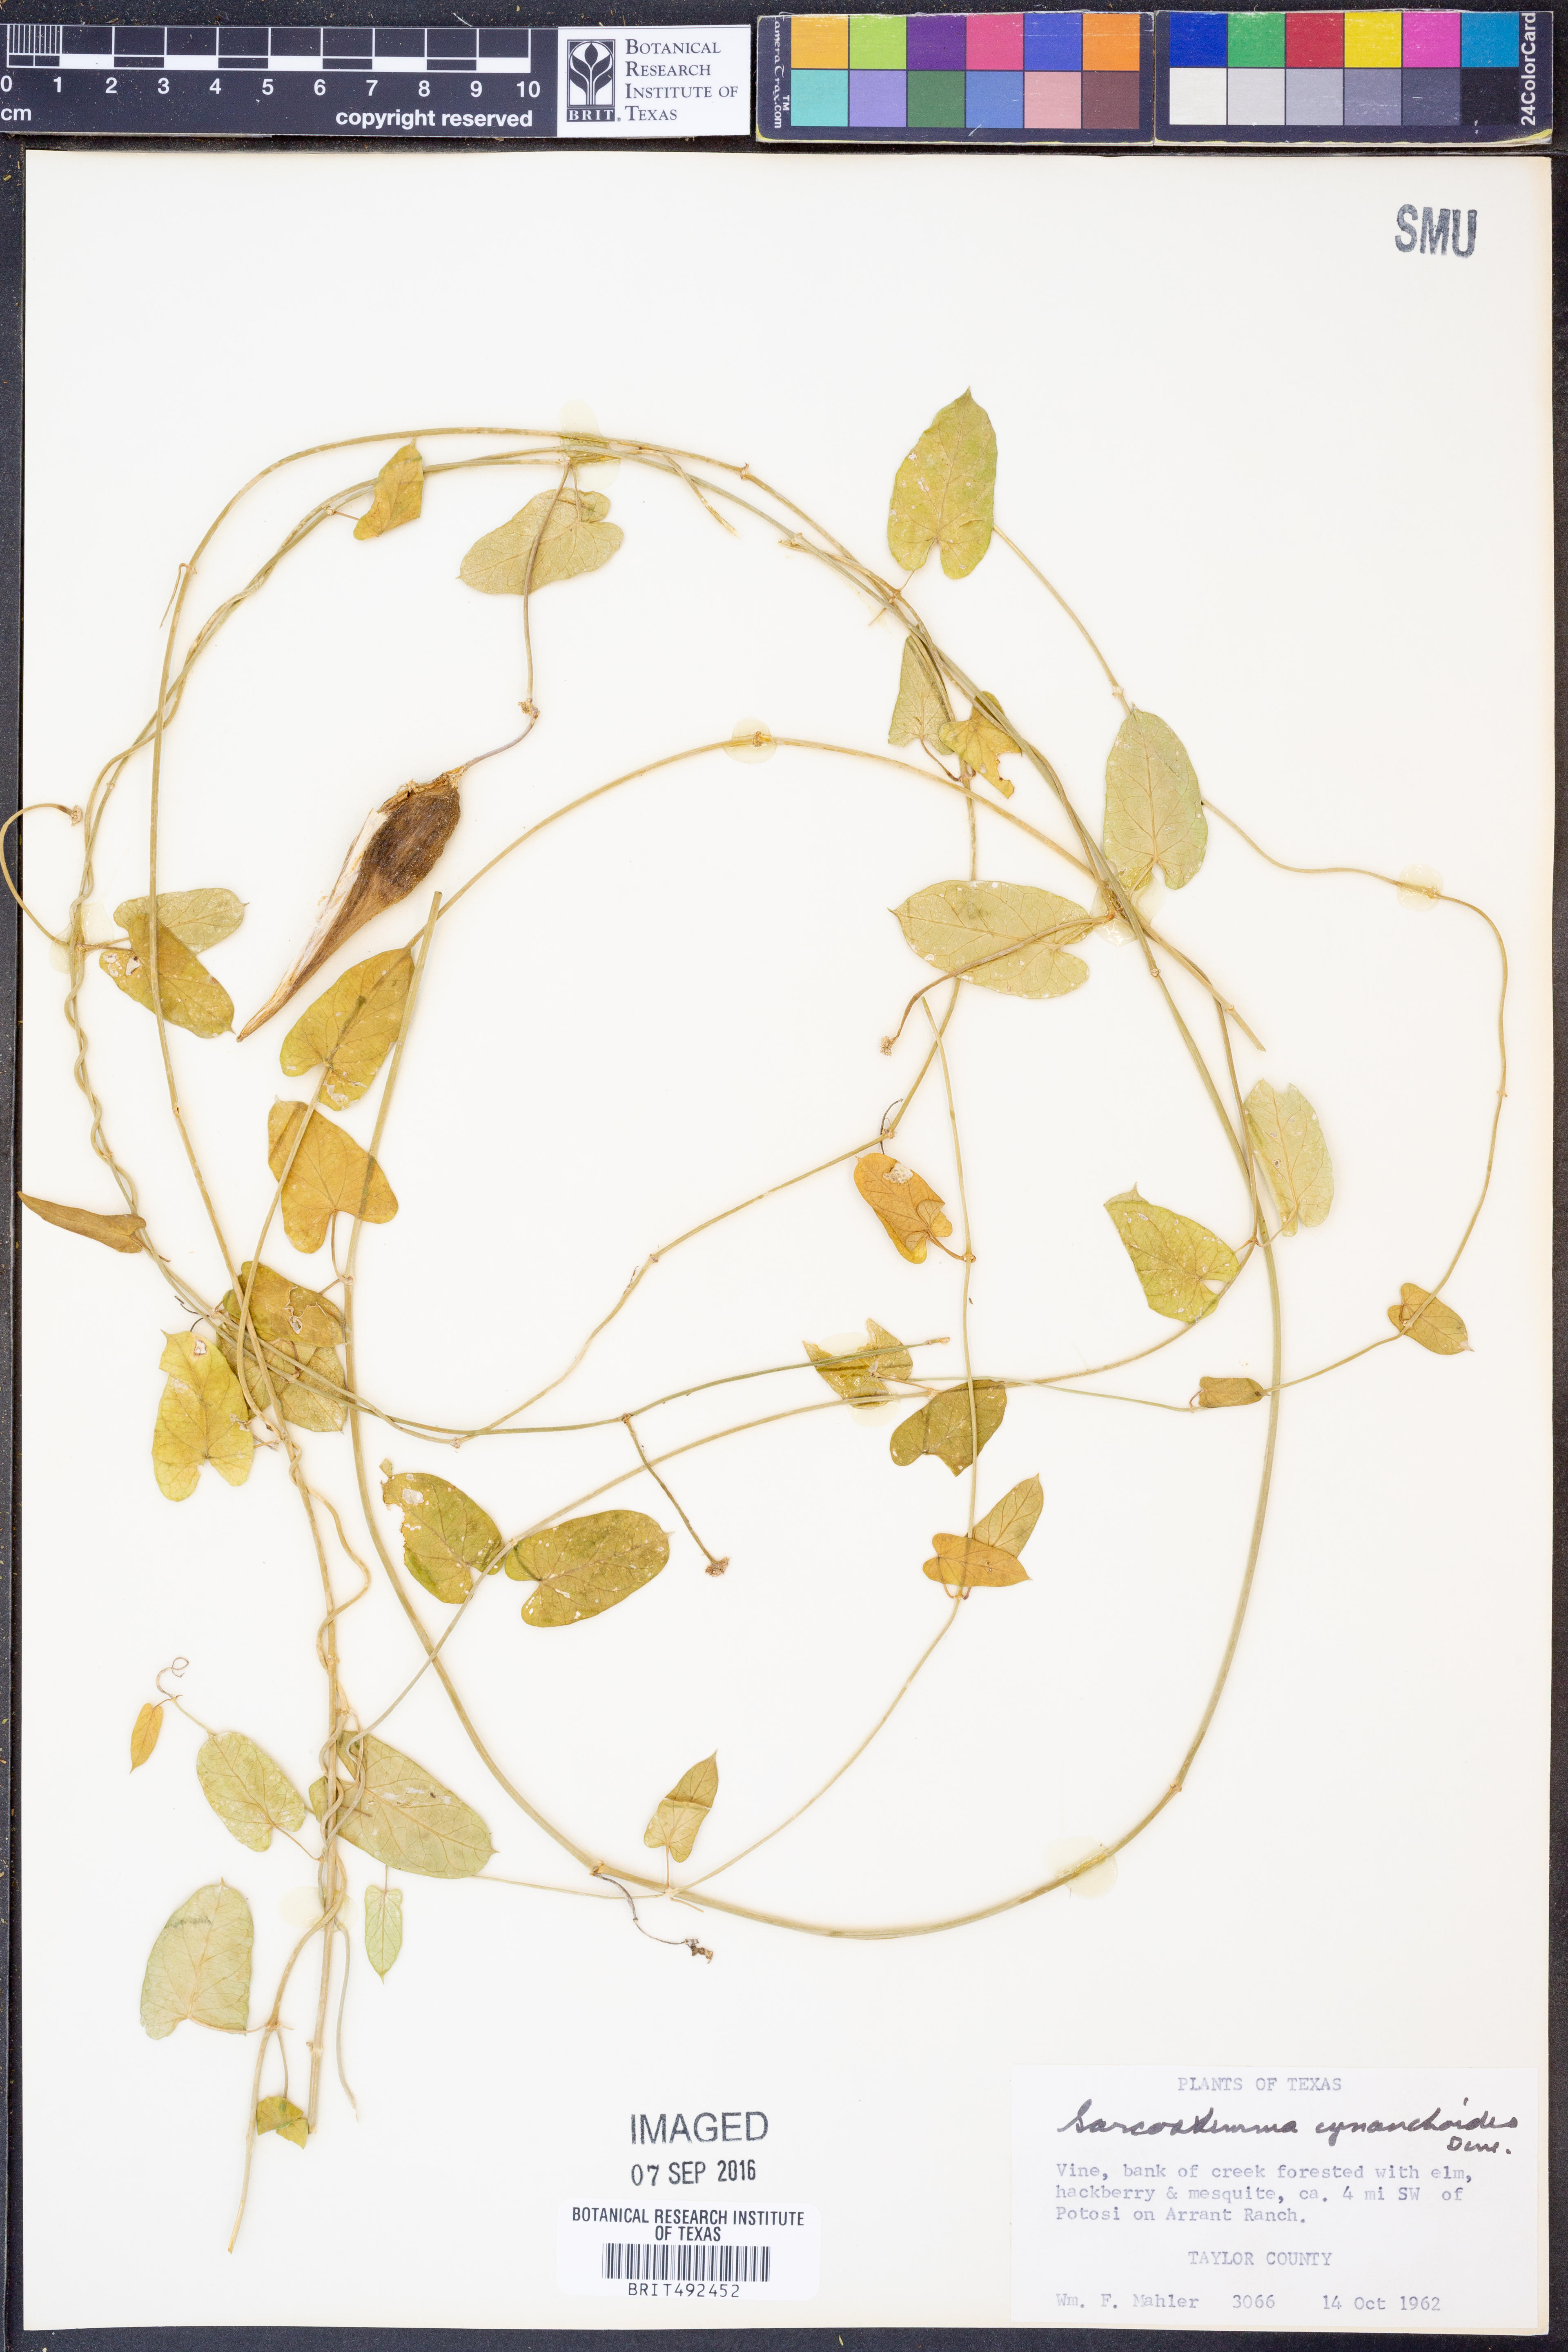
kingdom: Plantae
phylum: Tracheophyta
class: Magnoliopsida
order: Gentianales
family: Apocynaceae
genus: Funastrum
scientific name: Funastrum cynanchoides
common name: Climbing-milkweed
